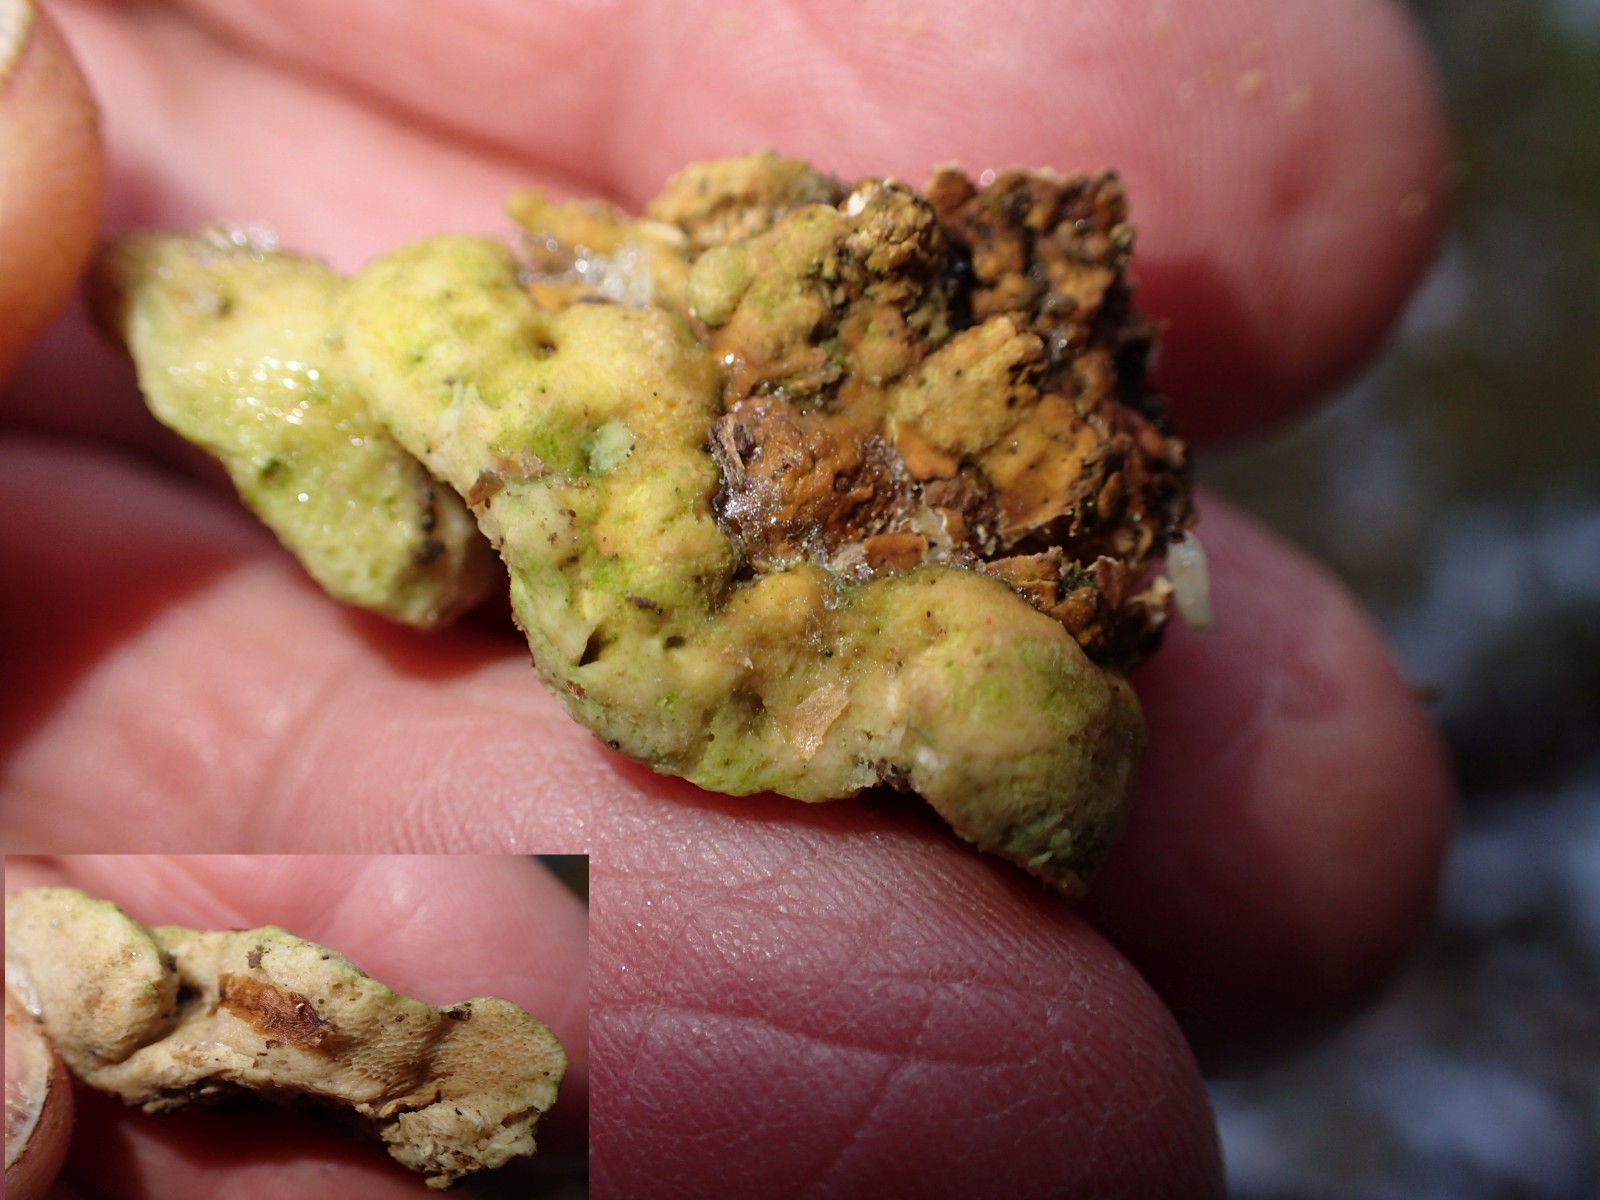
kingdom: Fungi
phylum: Basidiomycota
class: Agaricomycetes
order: Gloeophyllales
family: Gloeophyllaceae
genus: Gloeophyllum
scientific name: Gloeophyllum odoratum
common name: duftende korkhat
